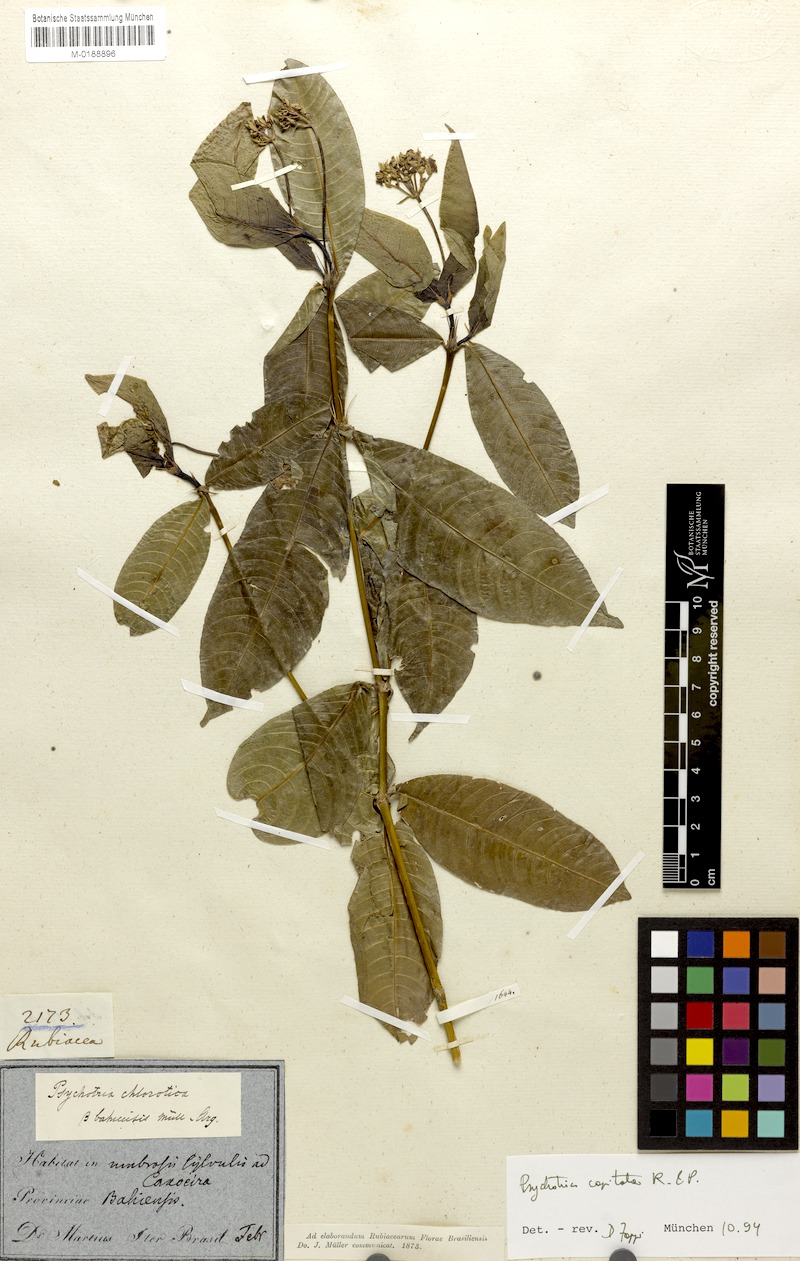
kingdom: Plantae
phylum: Tracheophyta
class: Magnoliopsida
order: Gentianales
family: Rubiaceae
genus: Palicourea
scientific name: Palicourea violacea
